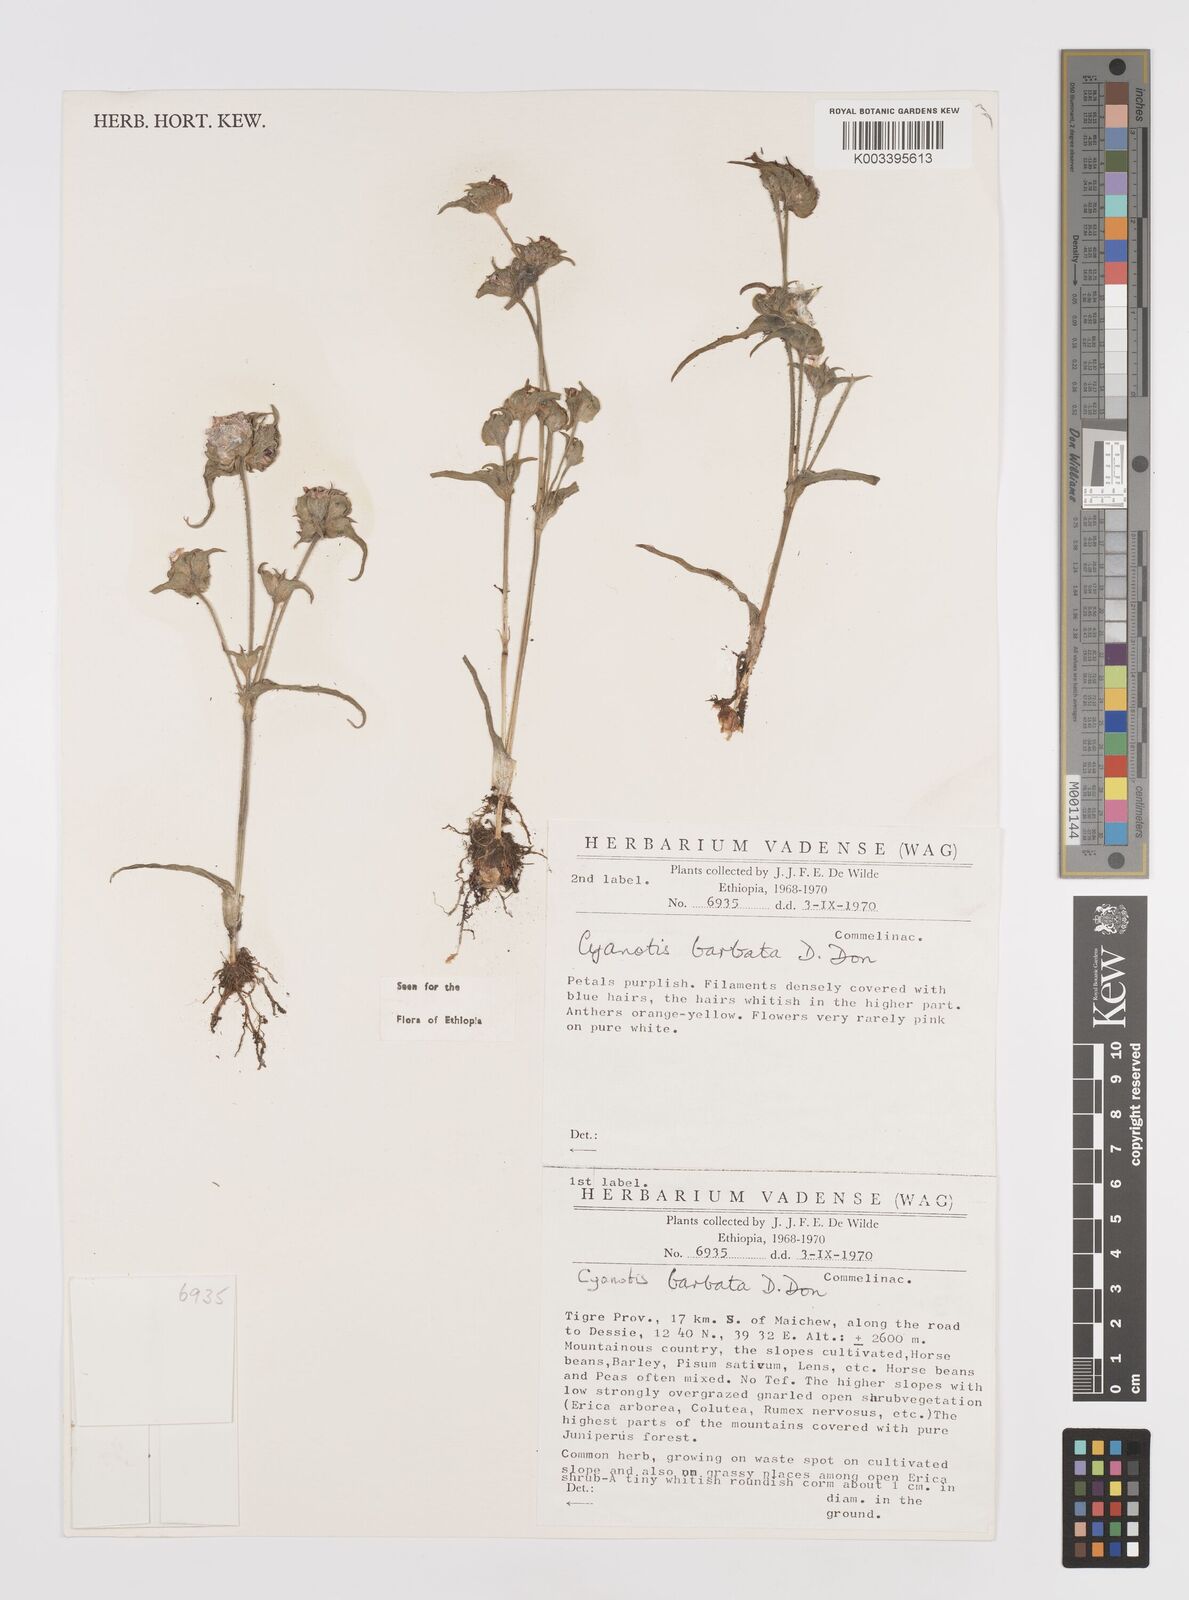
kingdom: Plantae
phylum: Tracheophyta
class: Liliopsida
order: Commelinales
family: Commelinaceae
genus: Cyanotis
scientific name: Cyanotis vaga
